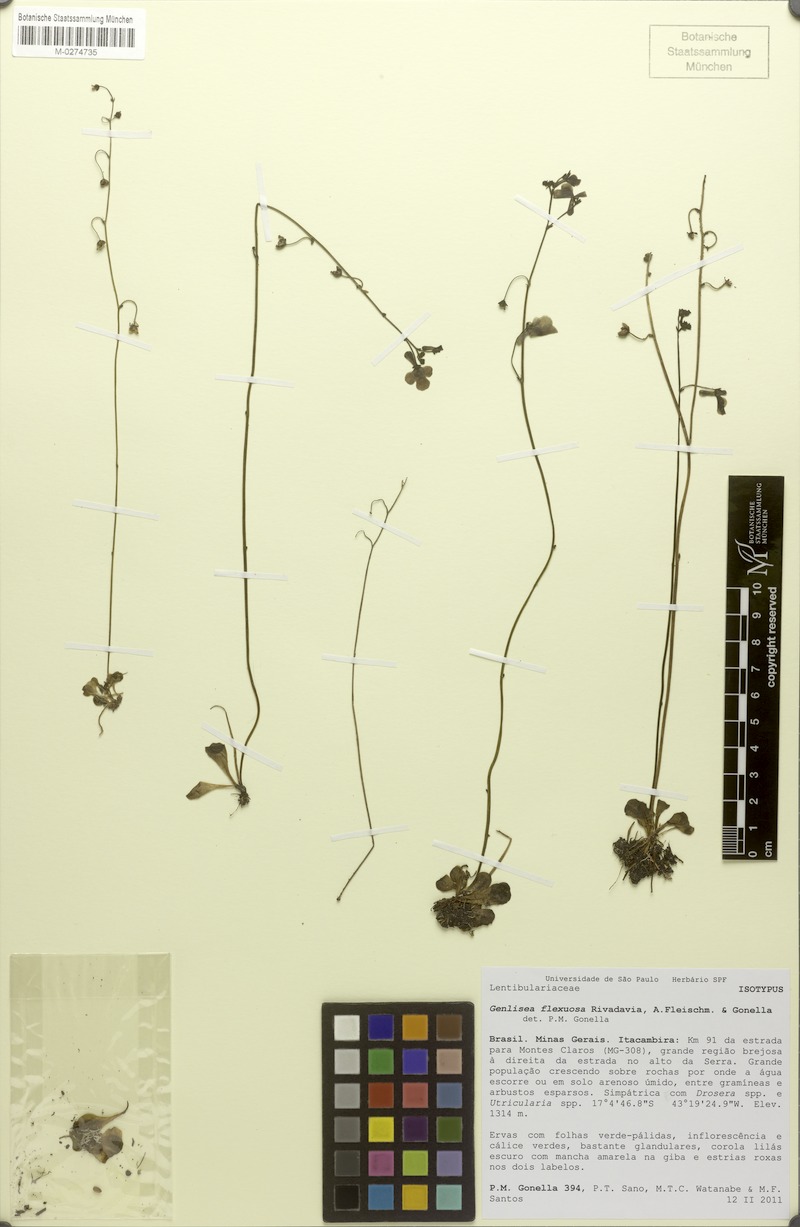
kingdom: Plantae
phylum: Tracheophyta
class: Magnoliopsida
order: Lamiales
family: Lentibulariaceae
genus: Genlisea
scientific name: Genlisea flexuosa
